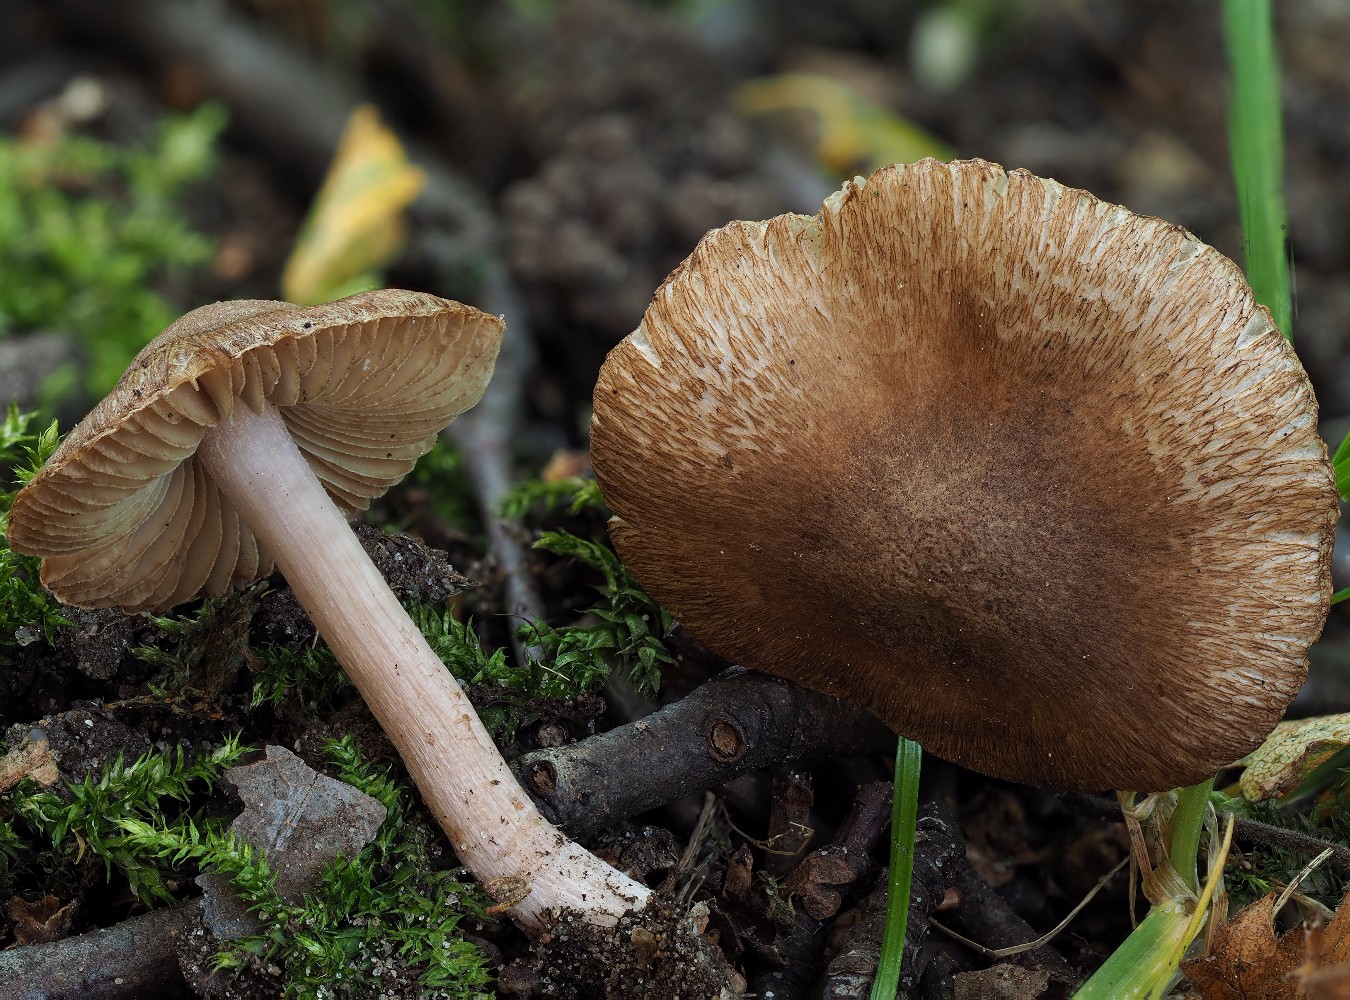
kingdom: Fungi
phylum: Basidiomycota
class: Agaricomycetes
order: Agaricales
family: Inocybaceae
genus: Inocybe
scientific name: Inocybe
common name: trævlhat
